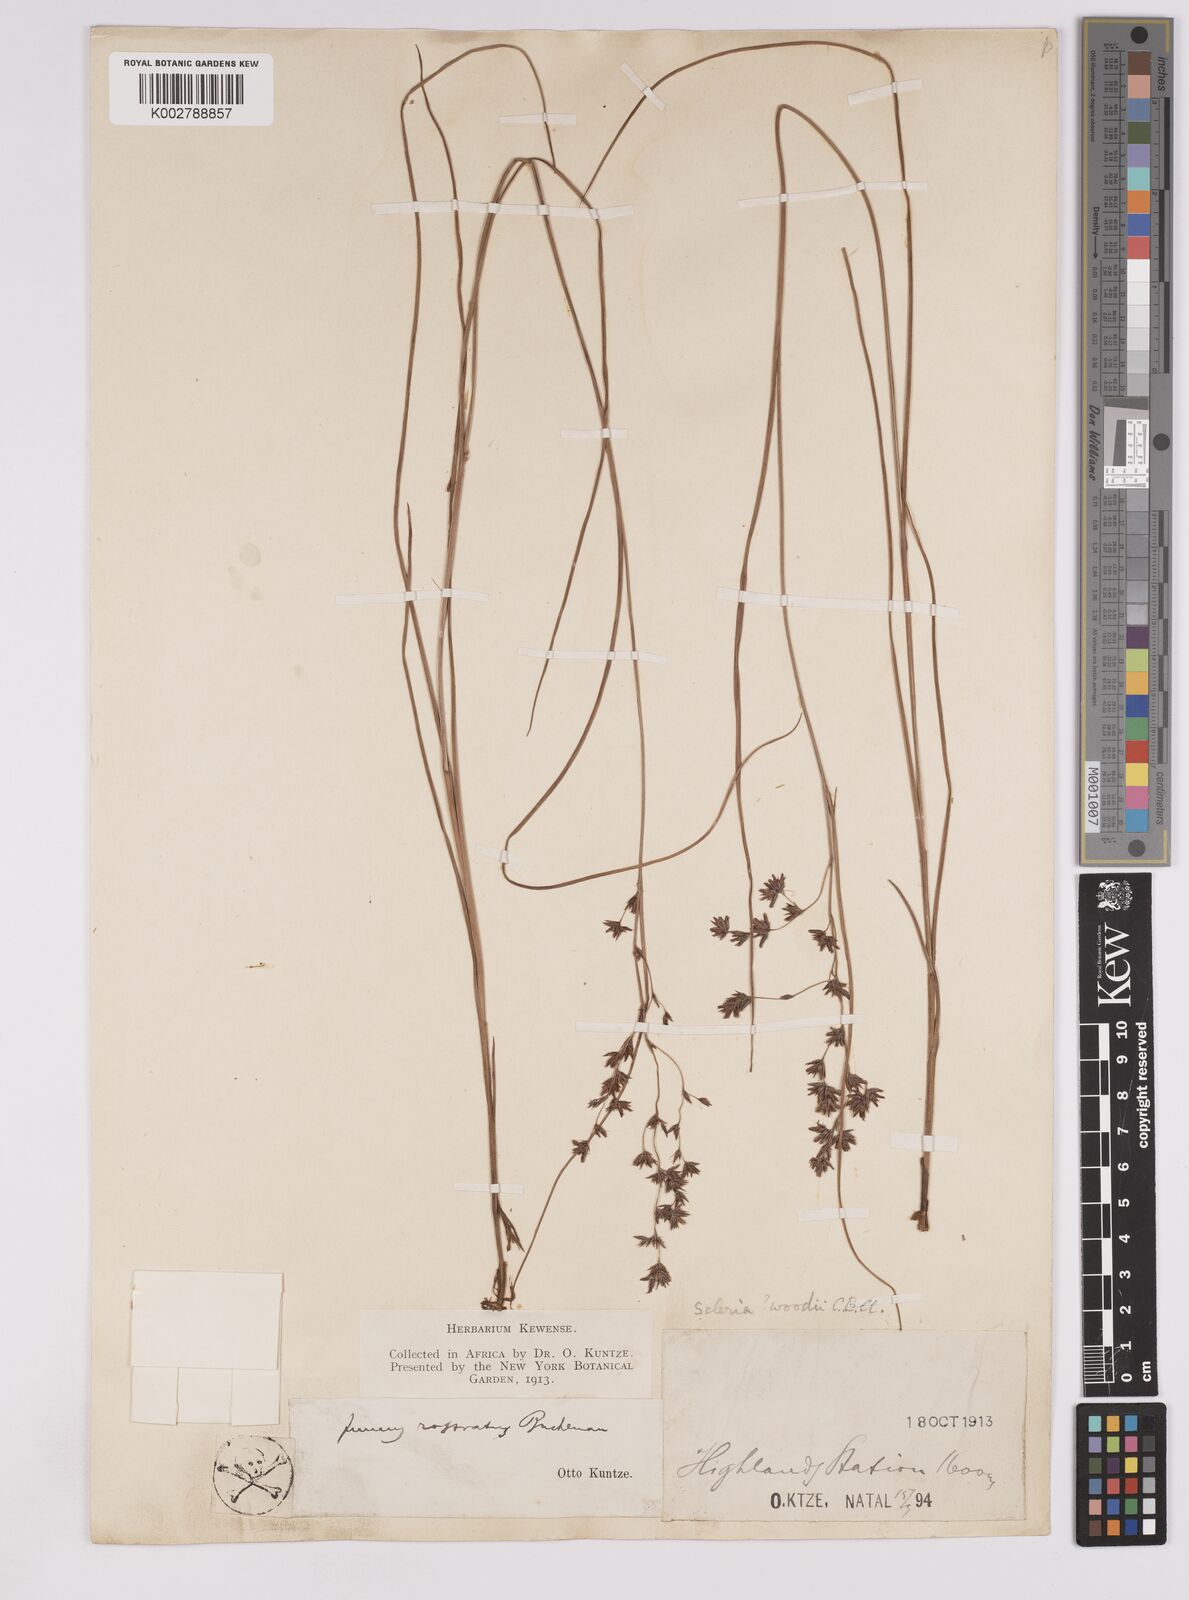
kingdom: Plantae
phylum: Tracheophyta
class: Liliopsida
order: Poales
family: Cyperaceae
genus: Scleria
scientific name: Scleria woodii
